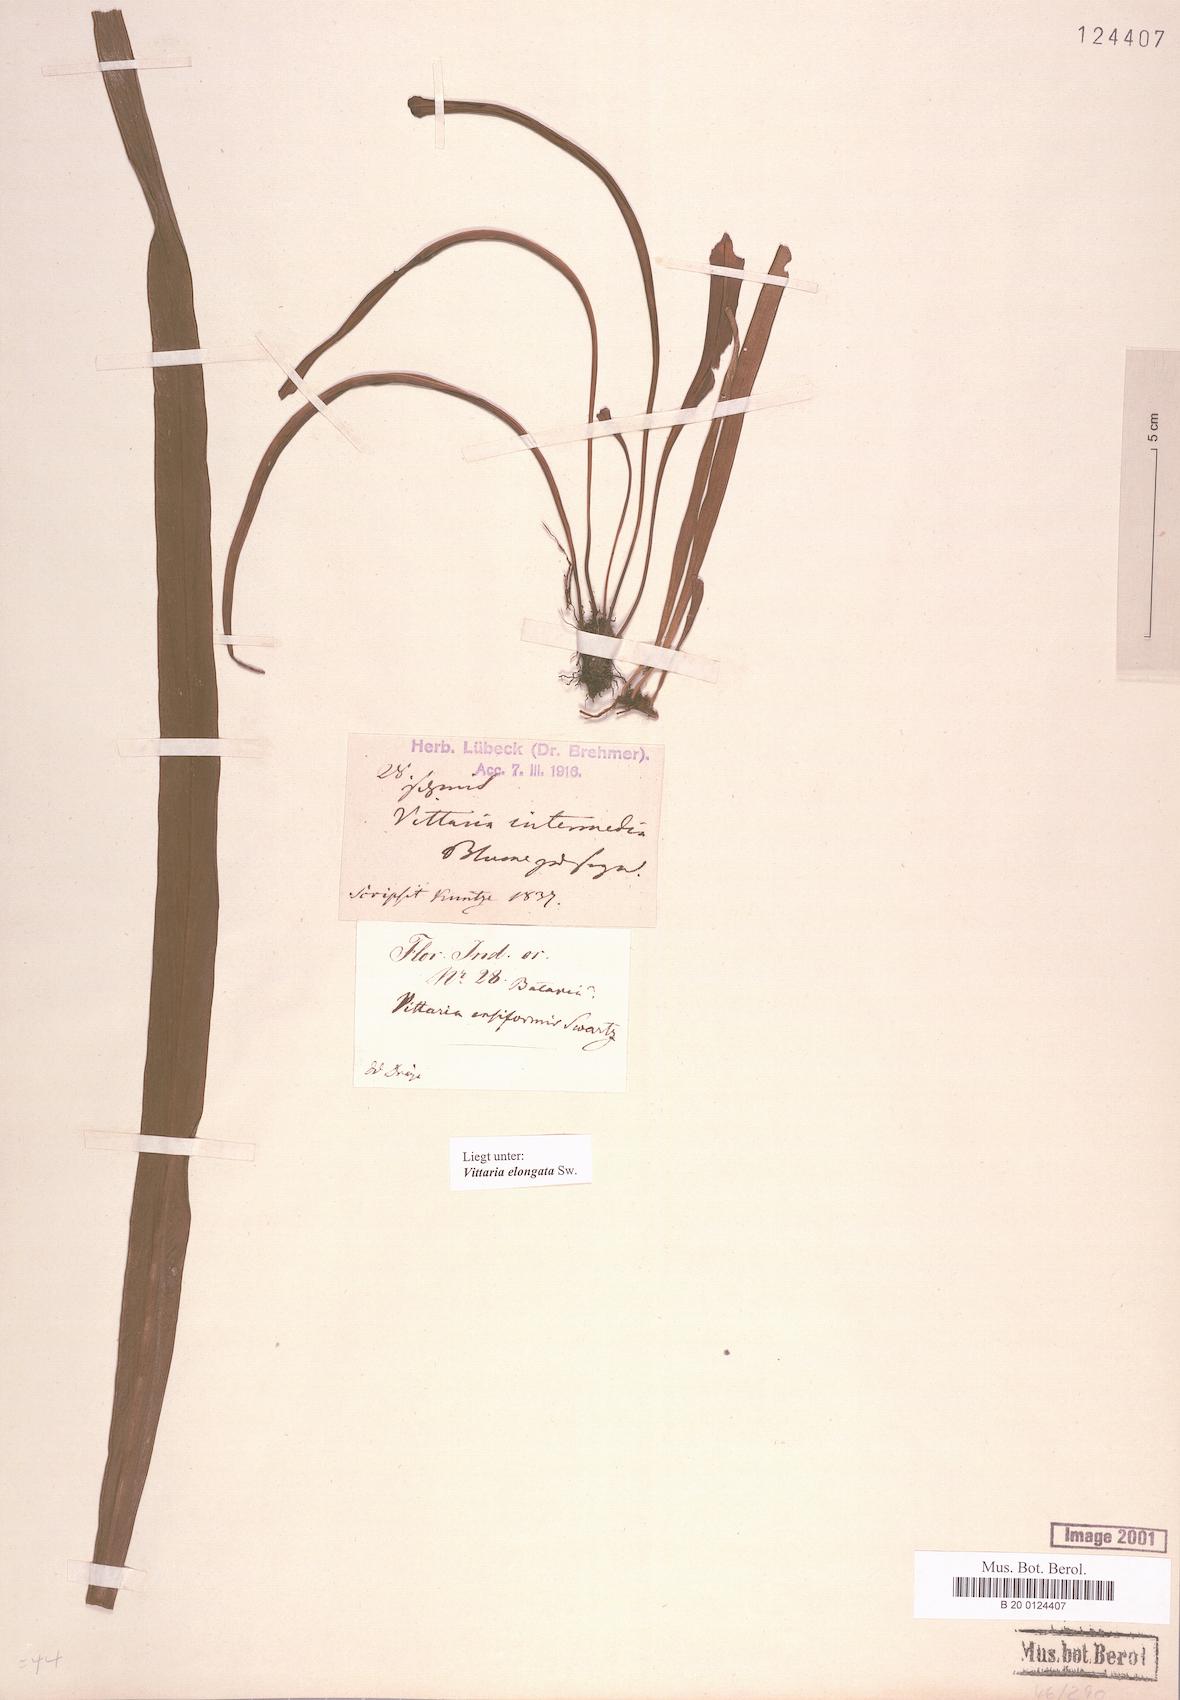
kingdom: Plantae
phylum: Tracheophyta
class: Polypodiopsida
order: Polypodiales
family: Pteridaceae
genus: Haplopteris
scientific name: Haplopteris elongata
